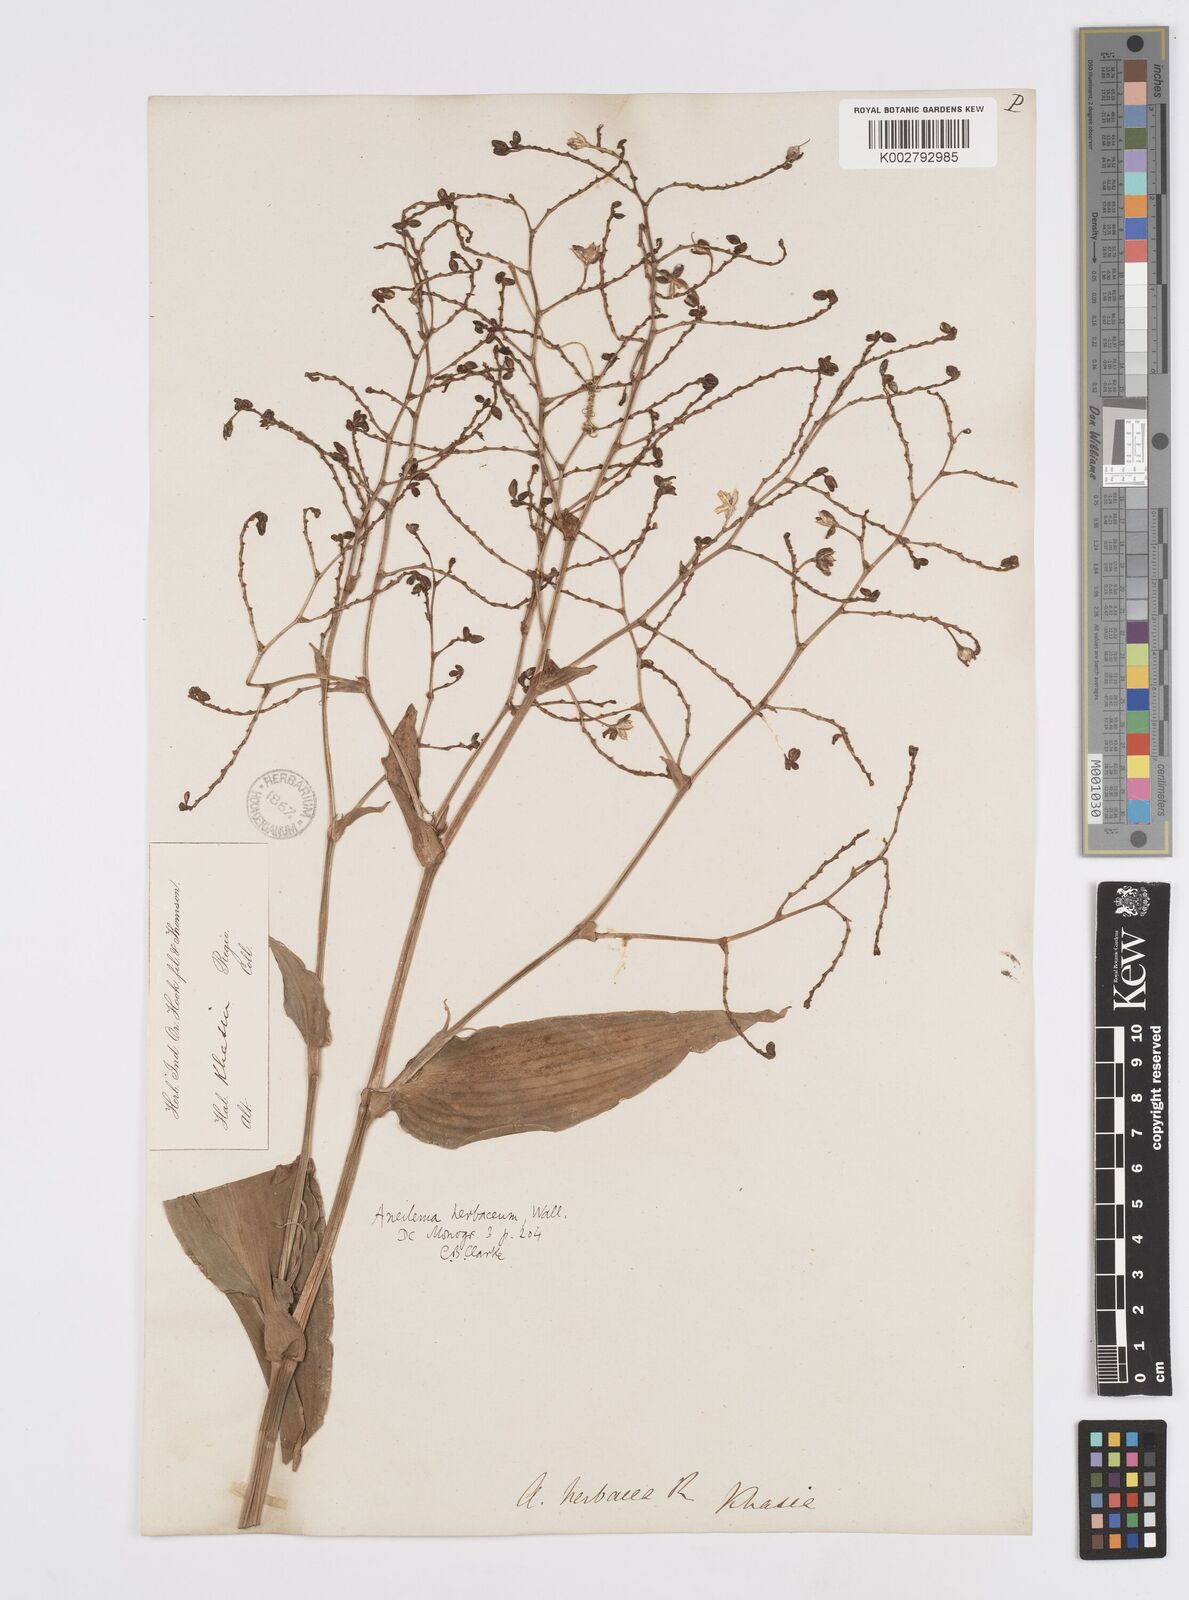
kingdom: Plantae
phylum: Tracheophyta
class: Liliopsida
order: Commelinales
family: Commelinaceae
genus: Murdannia
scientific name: Murdannia
